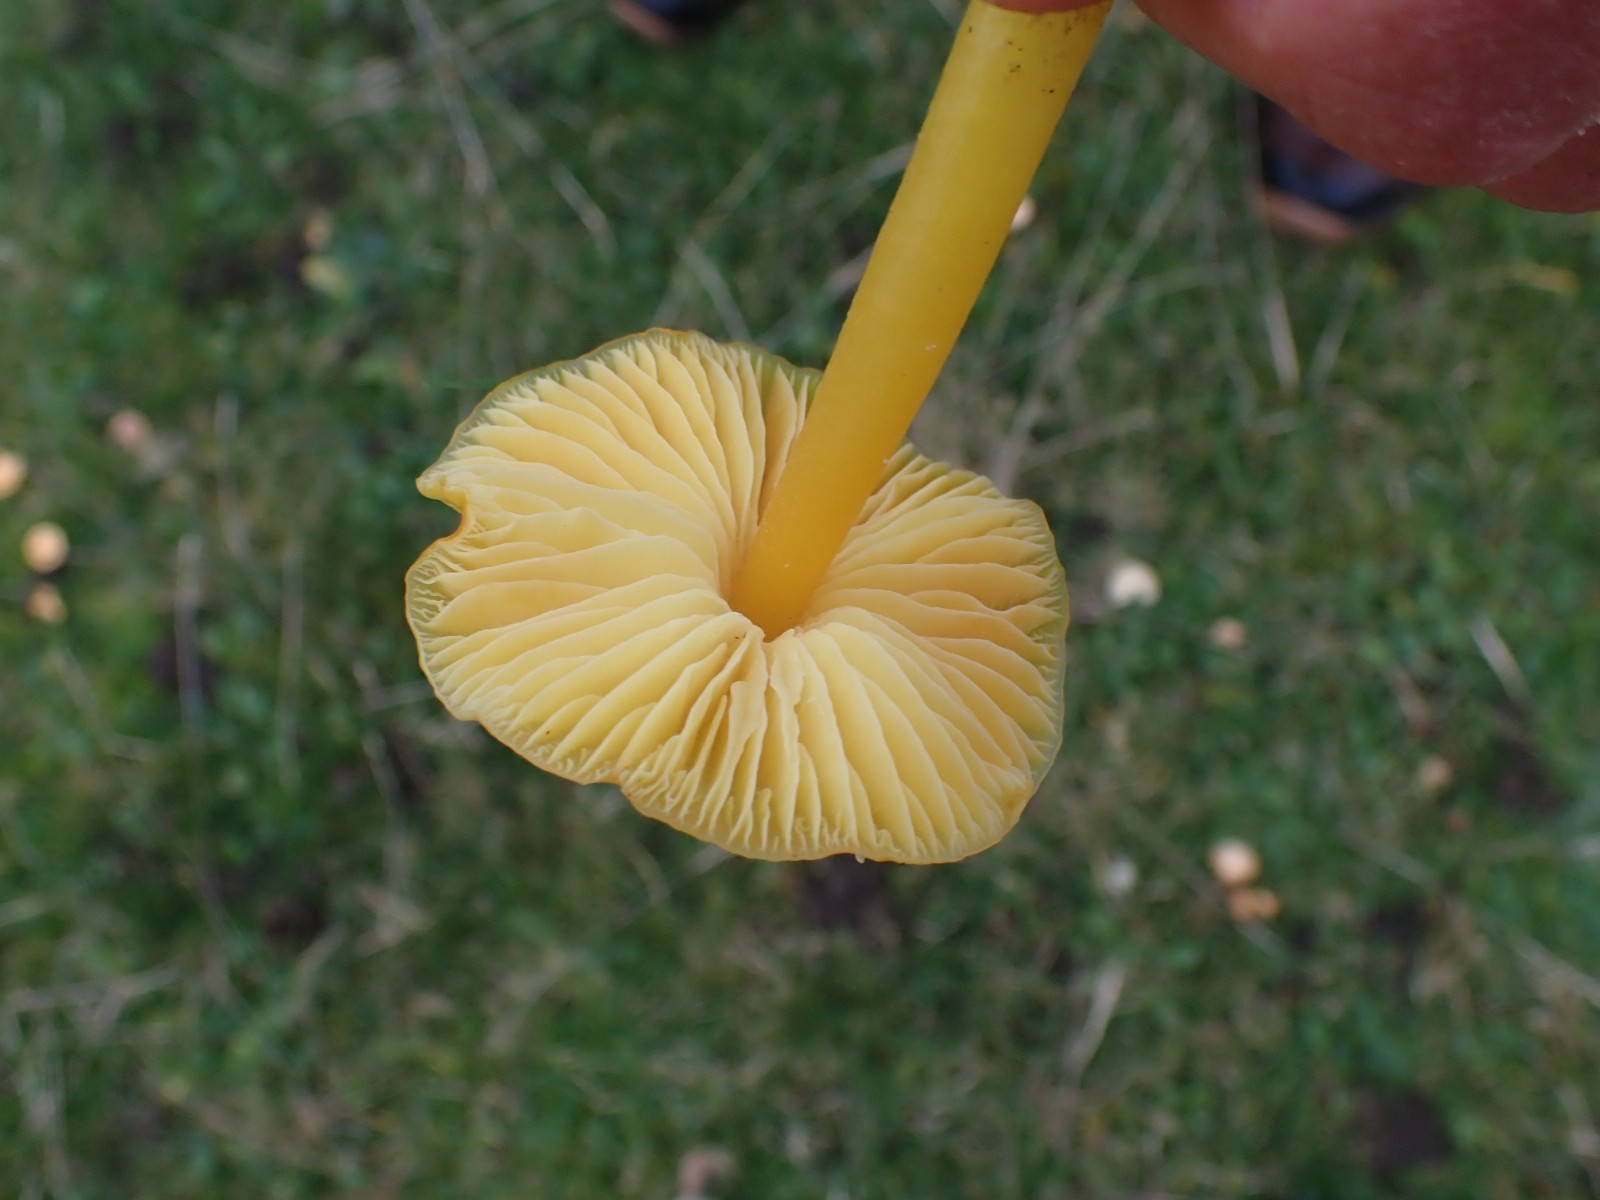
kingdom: Fungi
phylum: Basidiomycota
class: Agaricomycetes
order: Agaricales
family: Hygrophoraceae
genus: Hygrocybe
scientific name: Hygrocybe chlorophana
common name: gul vokshat
